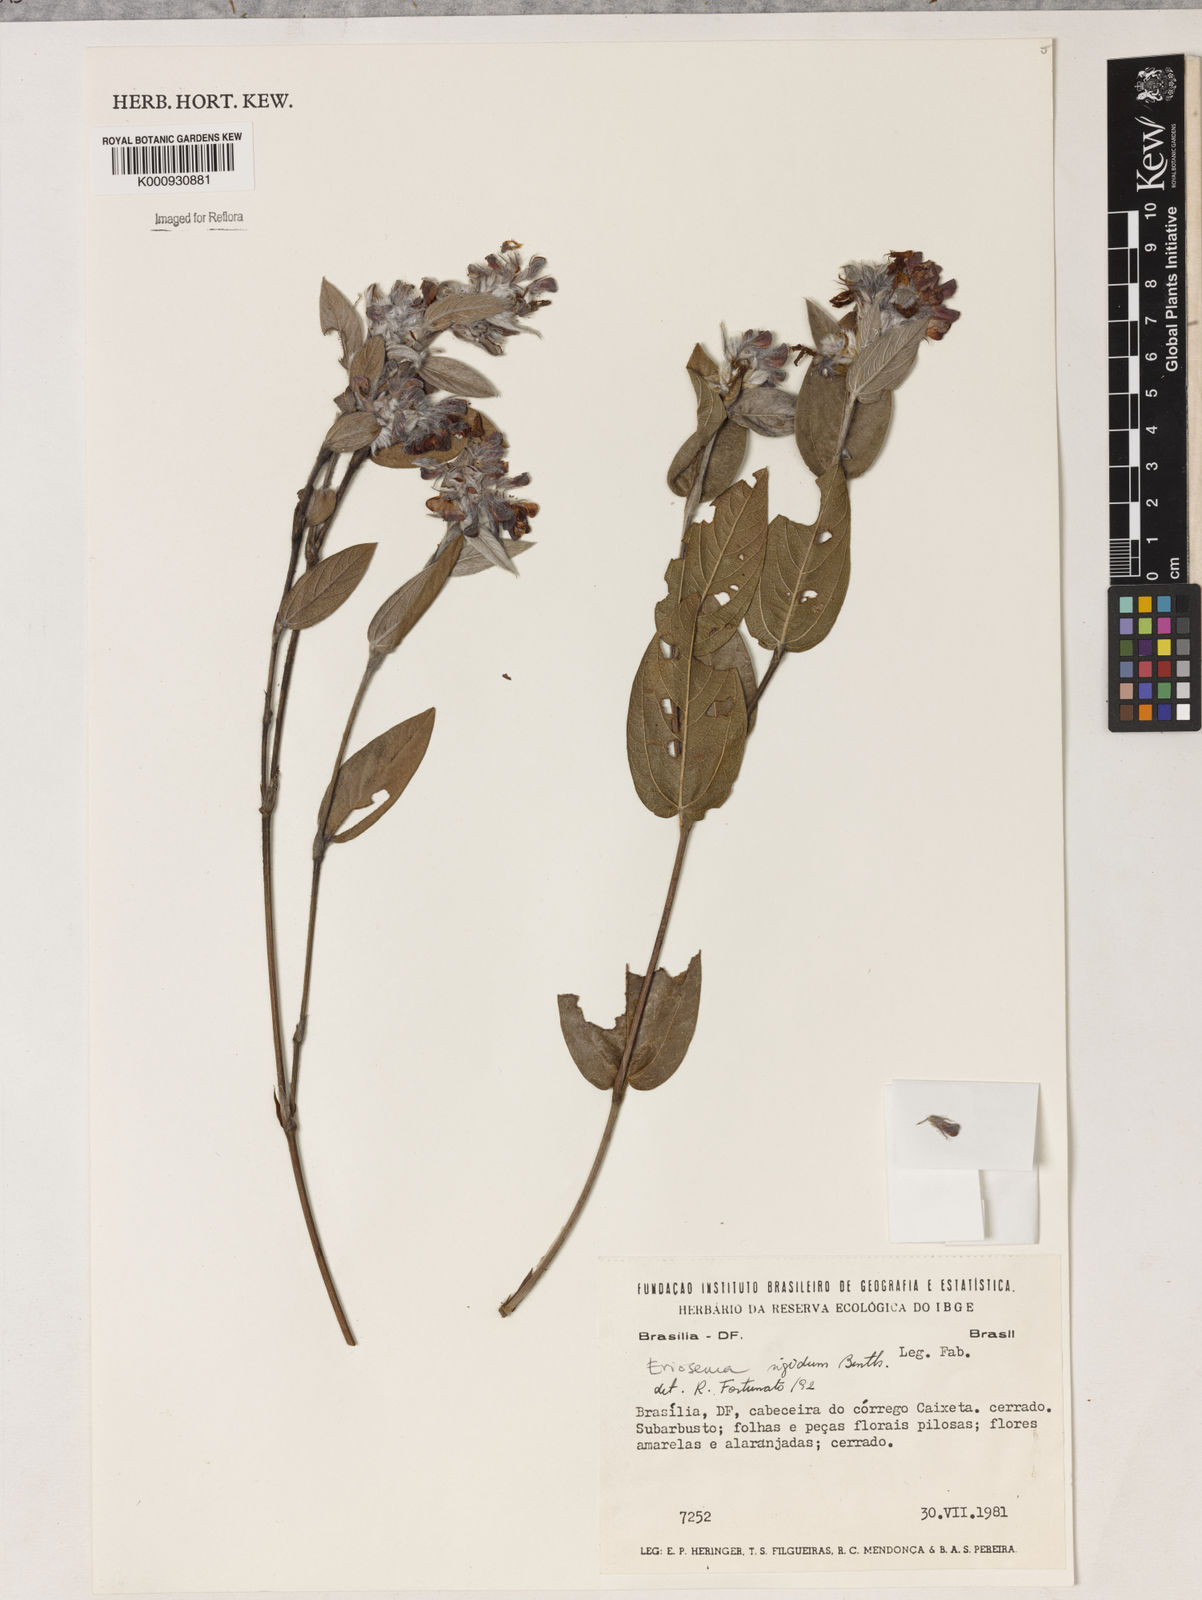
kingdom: Plantae
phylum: Tracheophyta
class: Magnoliopsida
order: Fabales
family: Fabaceae
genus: Eriosema
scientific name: Eriosema rigidum
